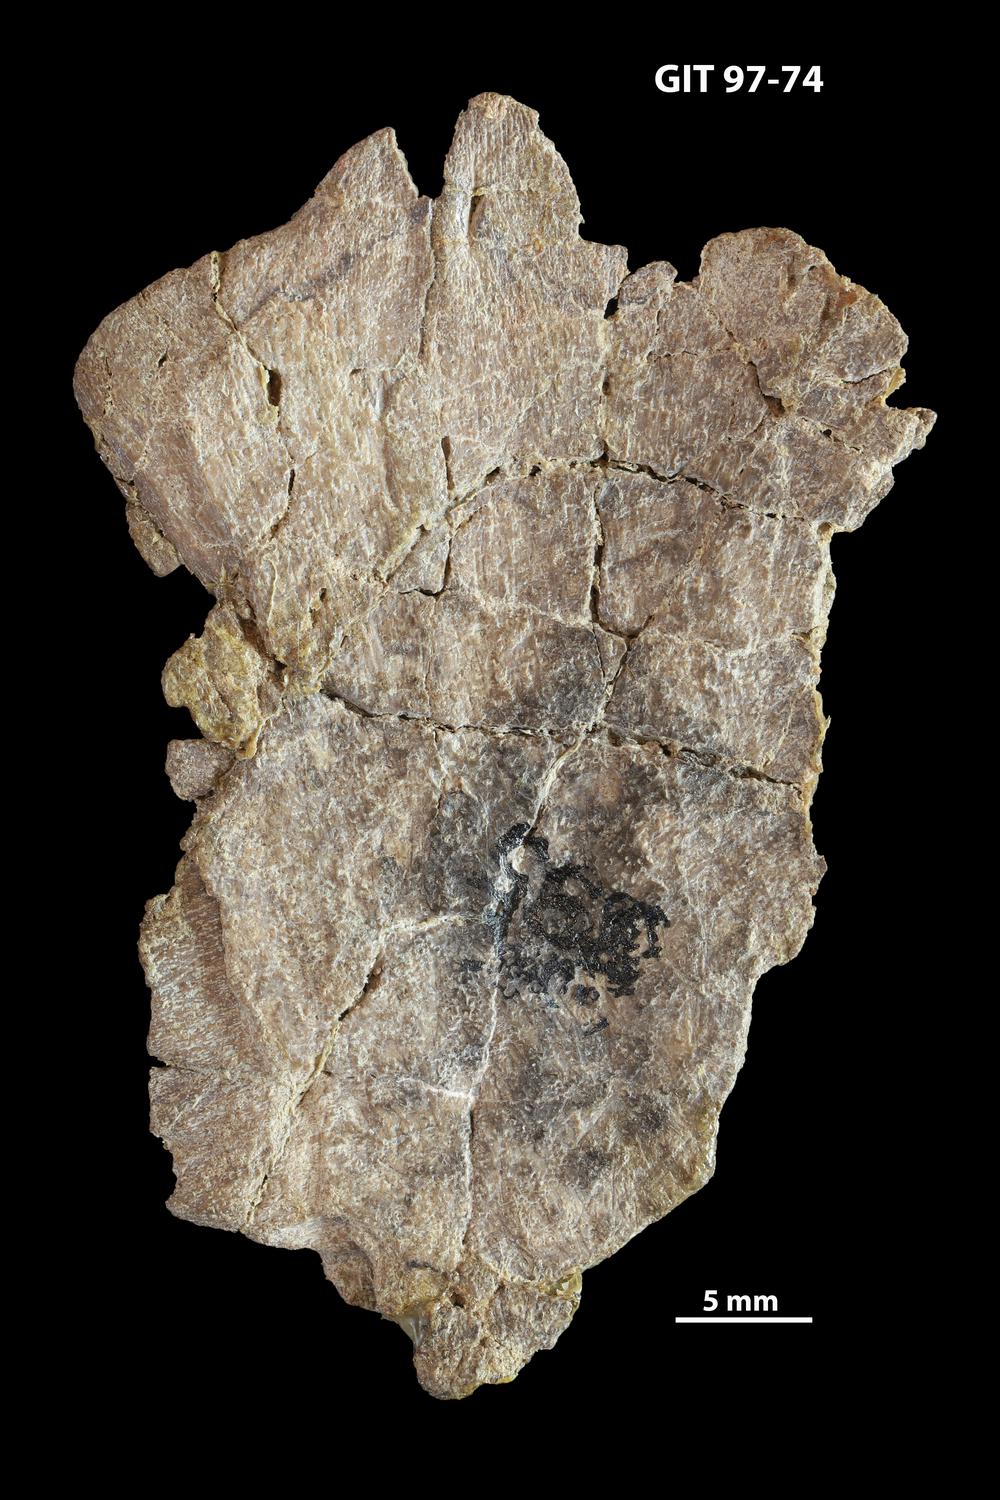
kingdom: Animalia
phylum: Chordata
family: Holonematidae
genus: Holonema
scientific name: Holonema
